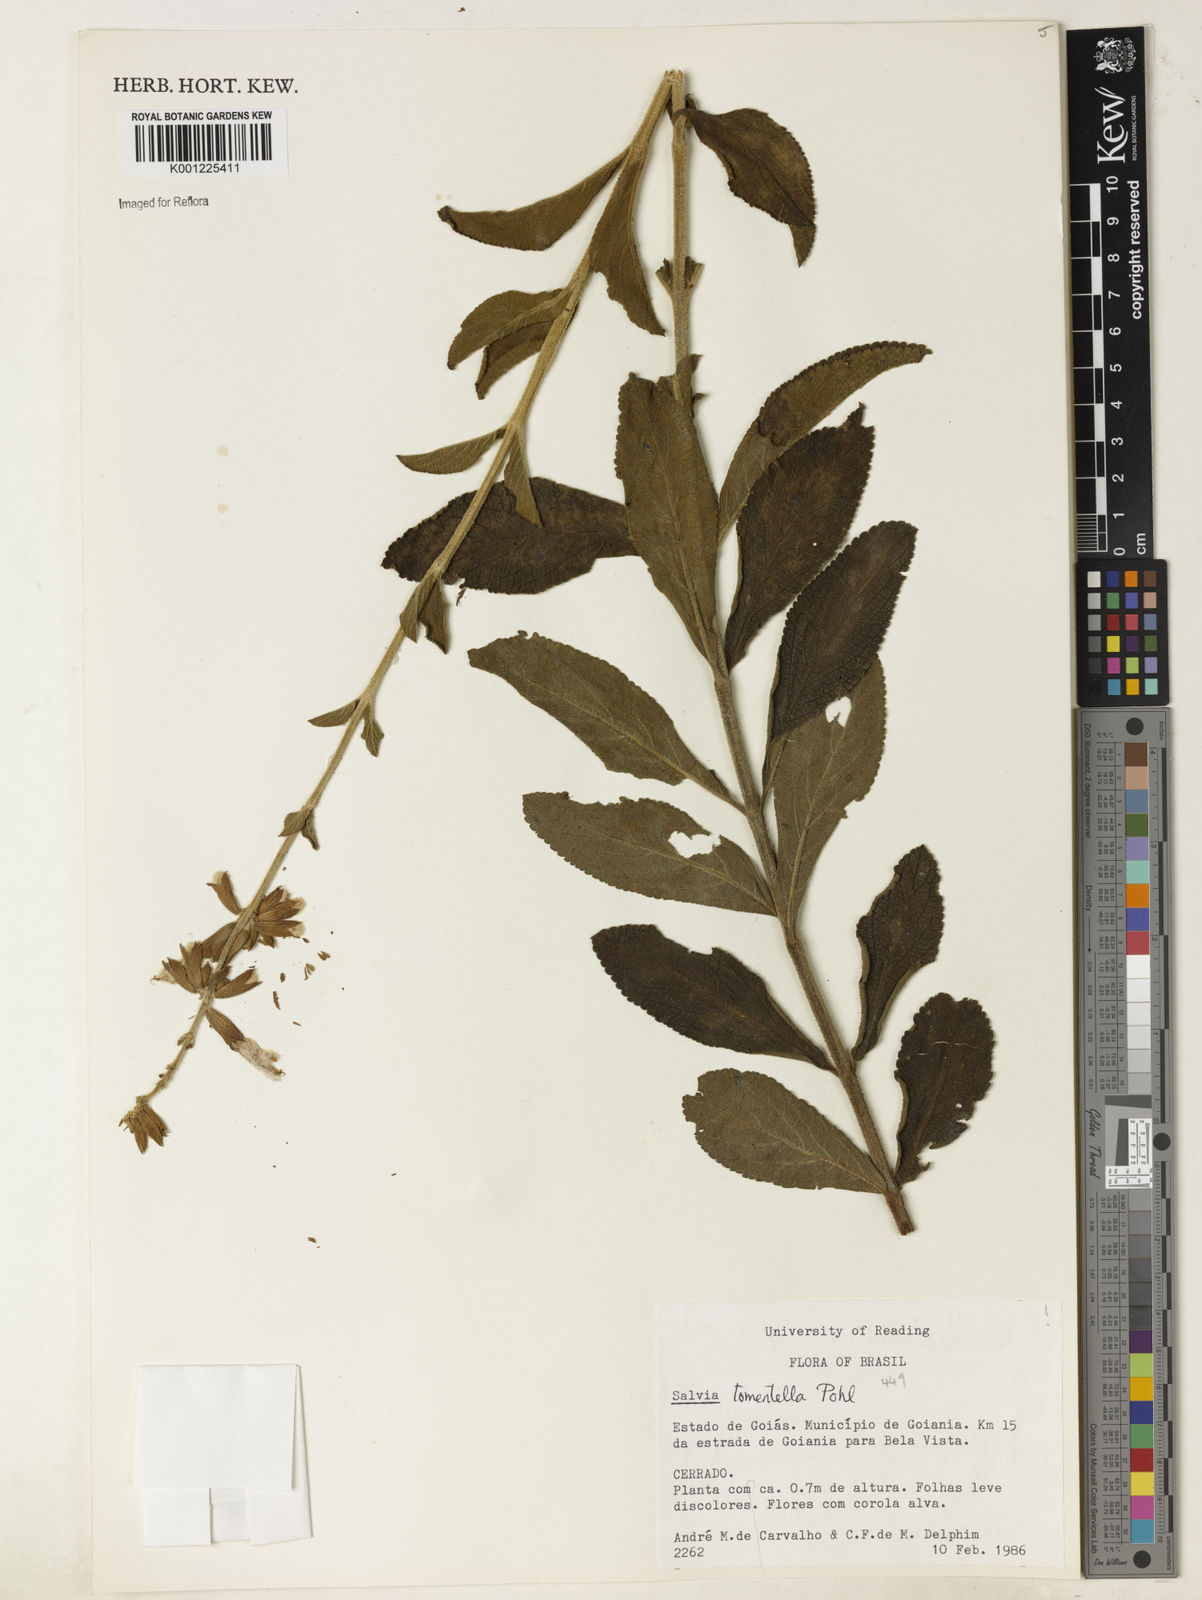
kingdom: Plantae
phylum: Tracheophyta
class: Magnoliopsida
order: Lamiales
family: Lamiaceae
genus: Salvia
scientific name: Salvia tomentella
